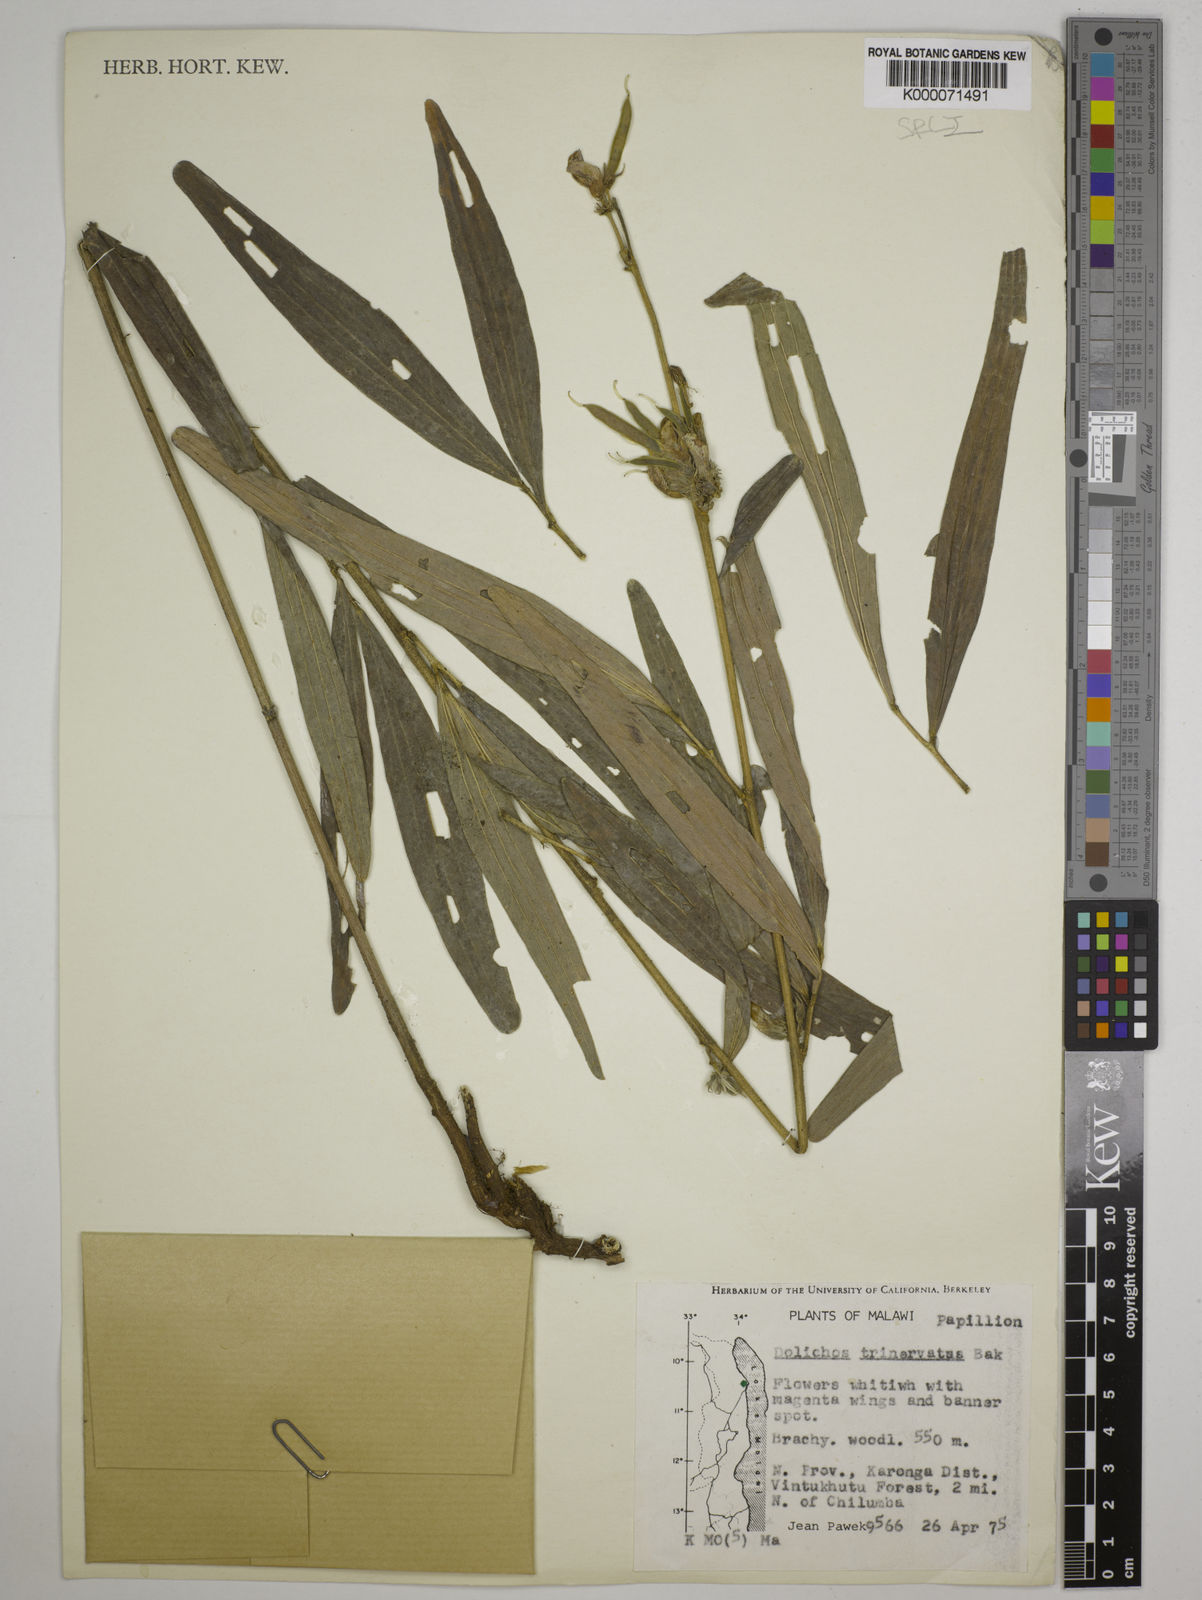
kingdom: Plantae
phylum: Tracheophyta
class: Magnoliopsida
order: Fabales
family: Fabaceae
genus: Dolichos
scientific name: Dolichos trinervatus
